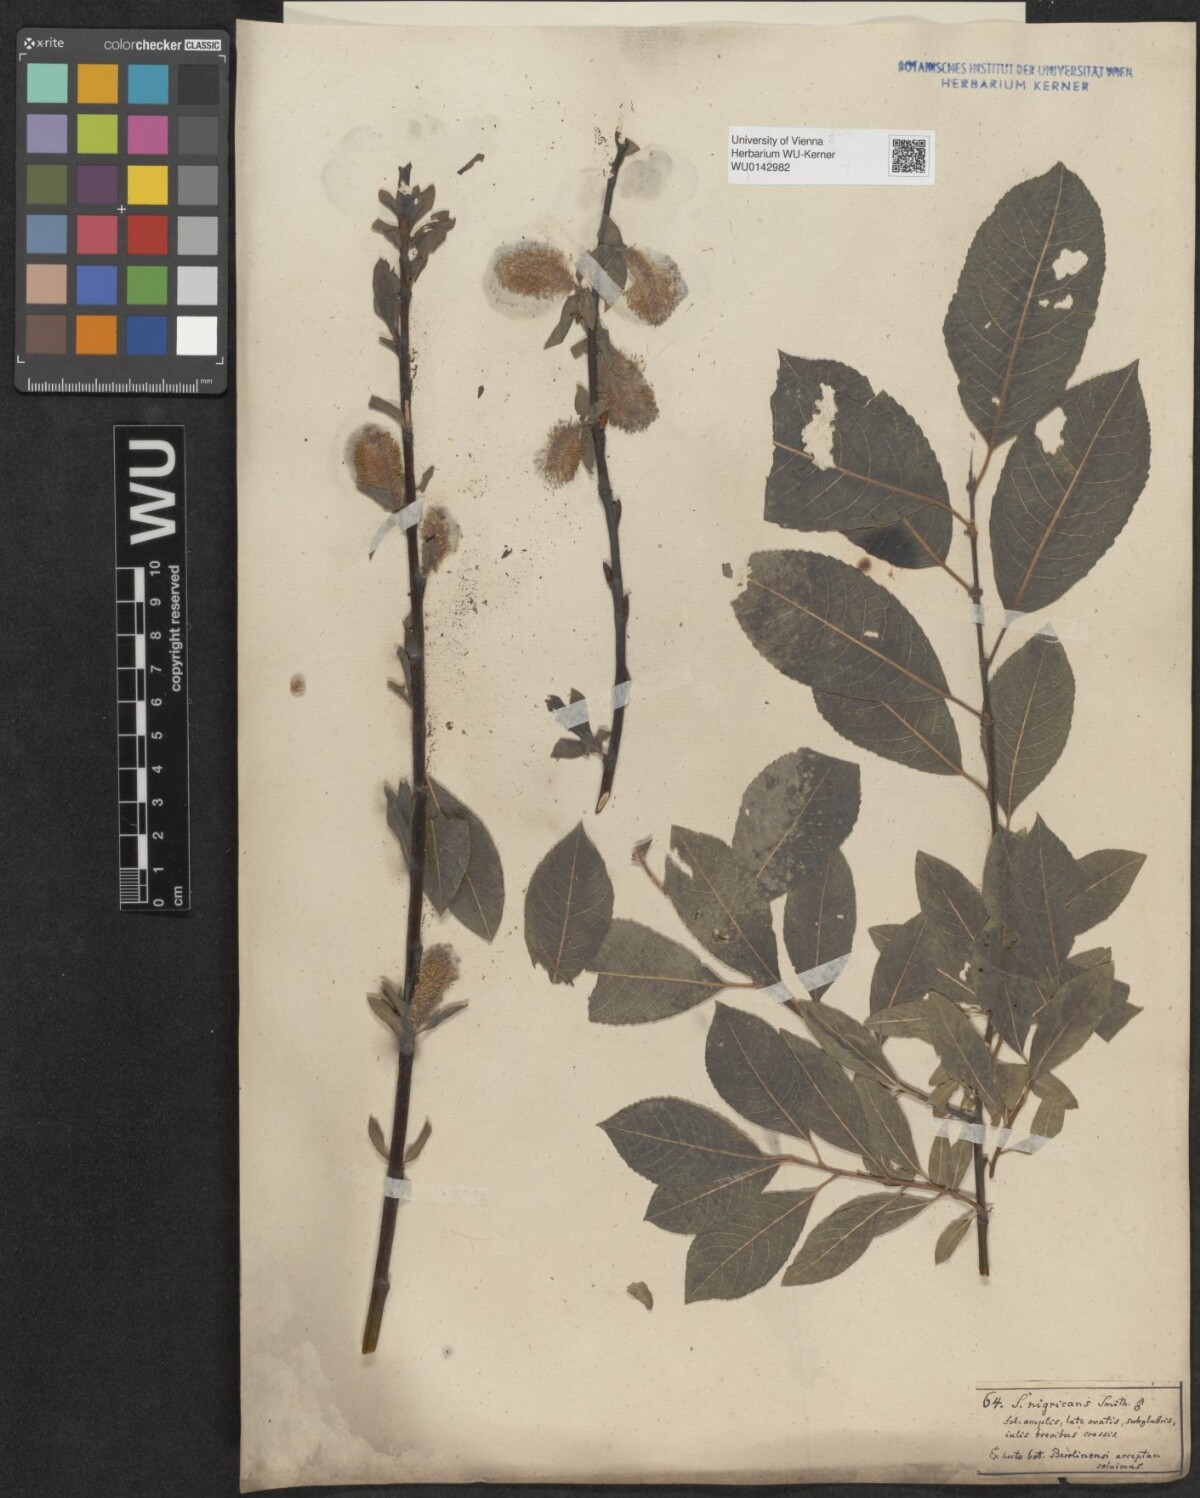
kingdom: Plantae
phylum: Tracheophyta
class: Magnoliopsida
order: Malpighiales
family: Salicaceae
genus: Salix
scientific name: Salix myrsinifolia
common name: Dark-leaved willow
